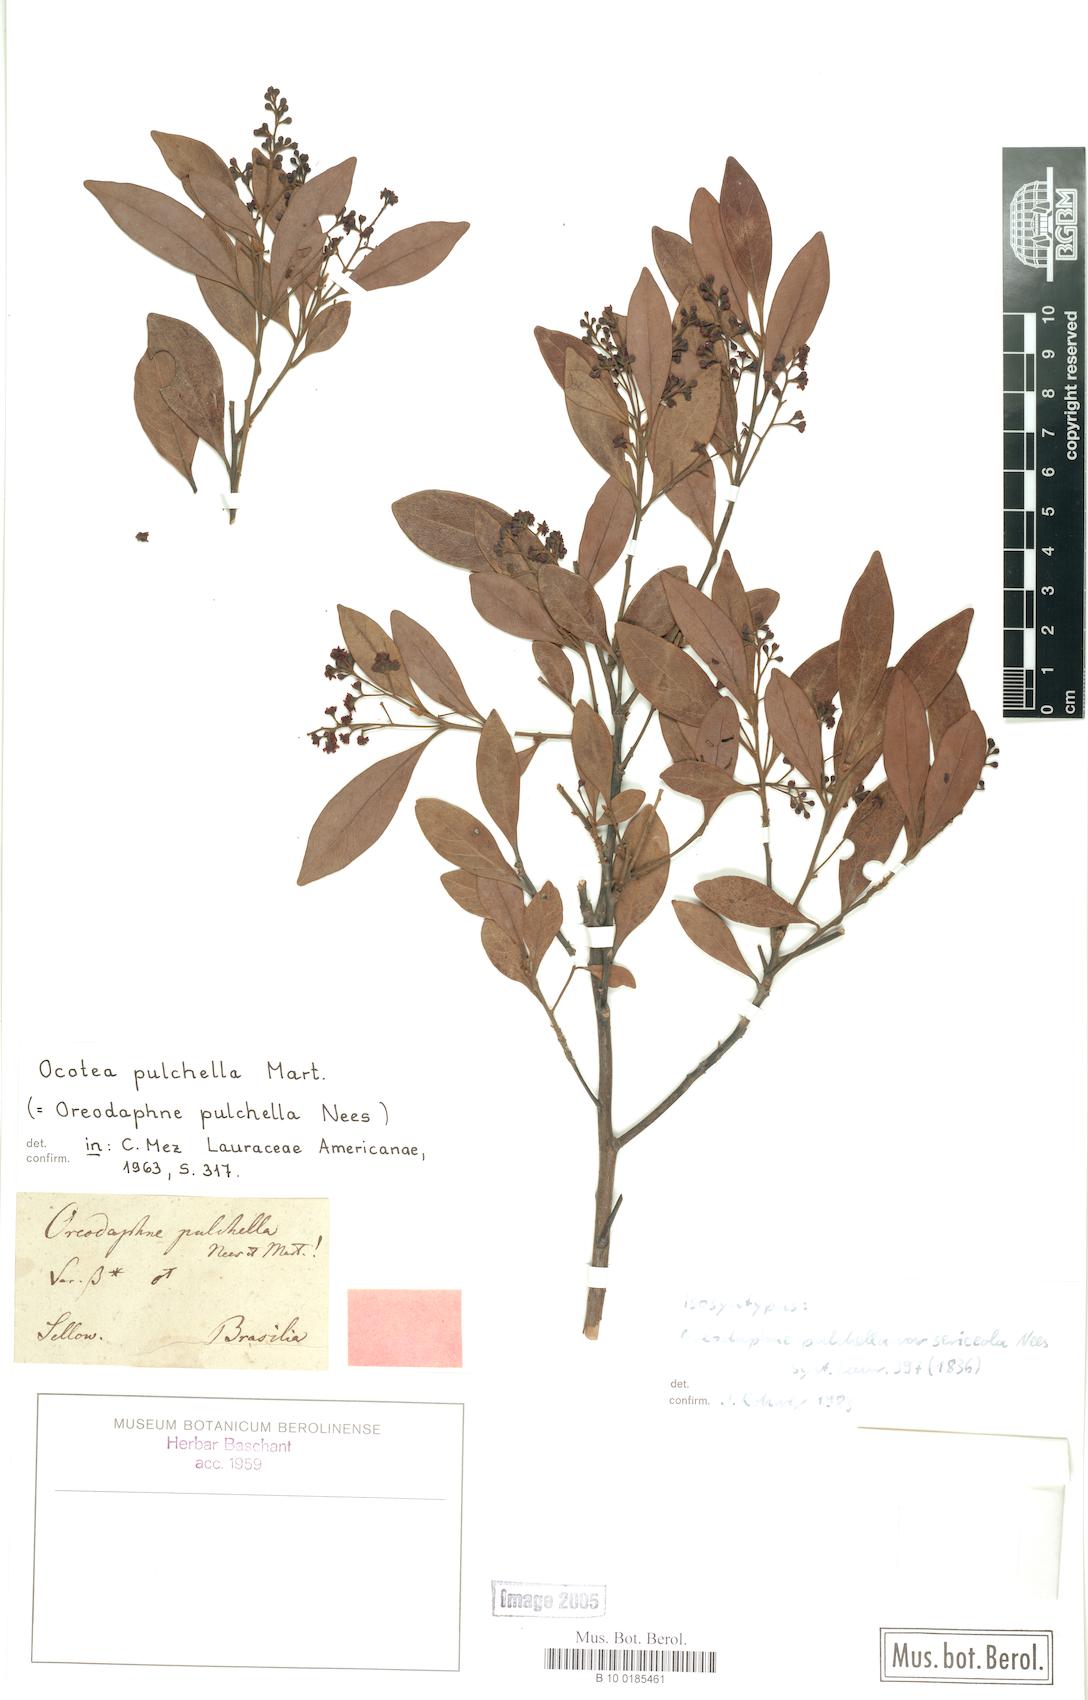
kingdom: Plantae
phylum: Tracheophyta
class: Magnoliopsida
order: Laurales
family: Lauraceae
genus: Mespilodaphne
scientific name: Mespilodaphne pulchella
